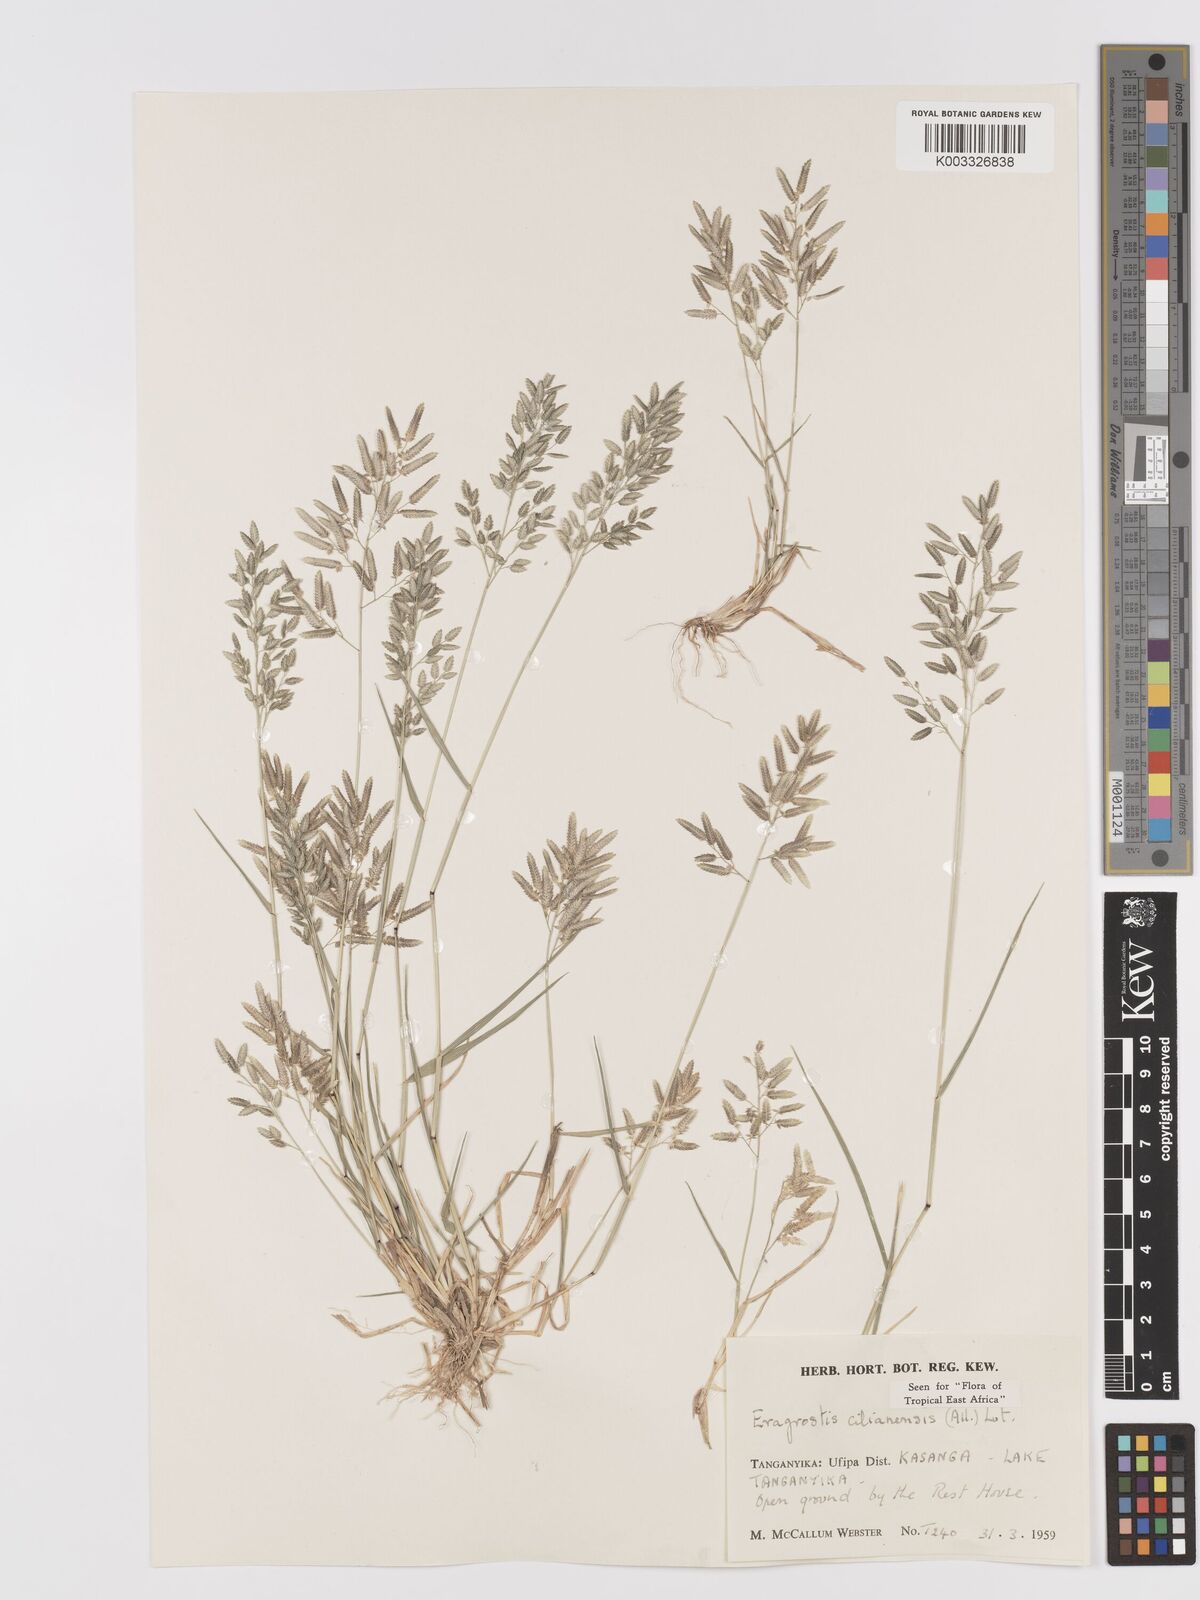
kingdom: Plantae
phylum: Tracheophyta
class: Liliopsida
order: Poales
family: Poaceae
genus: Eragrostis
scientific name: Eragrostis cilianensis
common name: Stinkgrass
